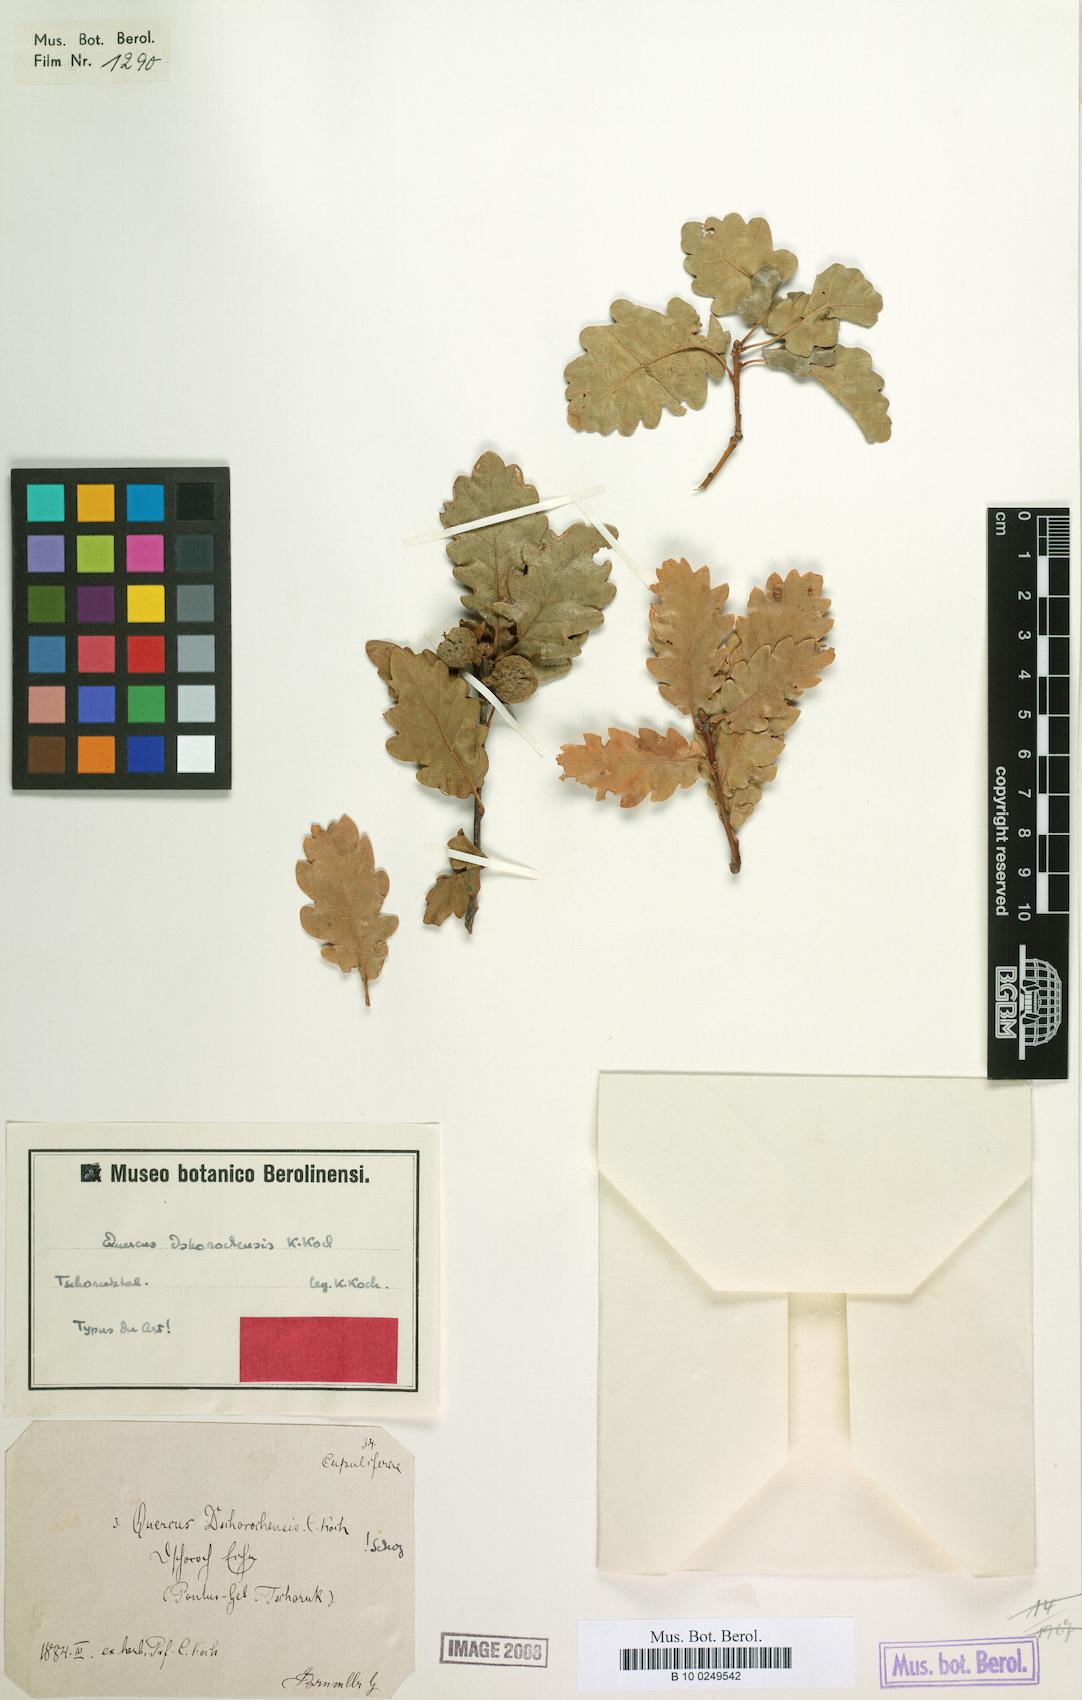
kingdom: Plantae
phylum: Tracheophyta
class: Magnoliopsida
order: Fagales
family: Fagaceae
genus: Quercus
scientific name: Quercus petraea
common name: Sessile oak
